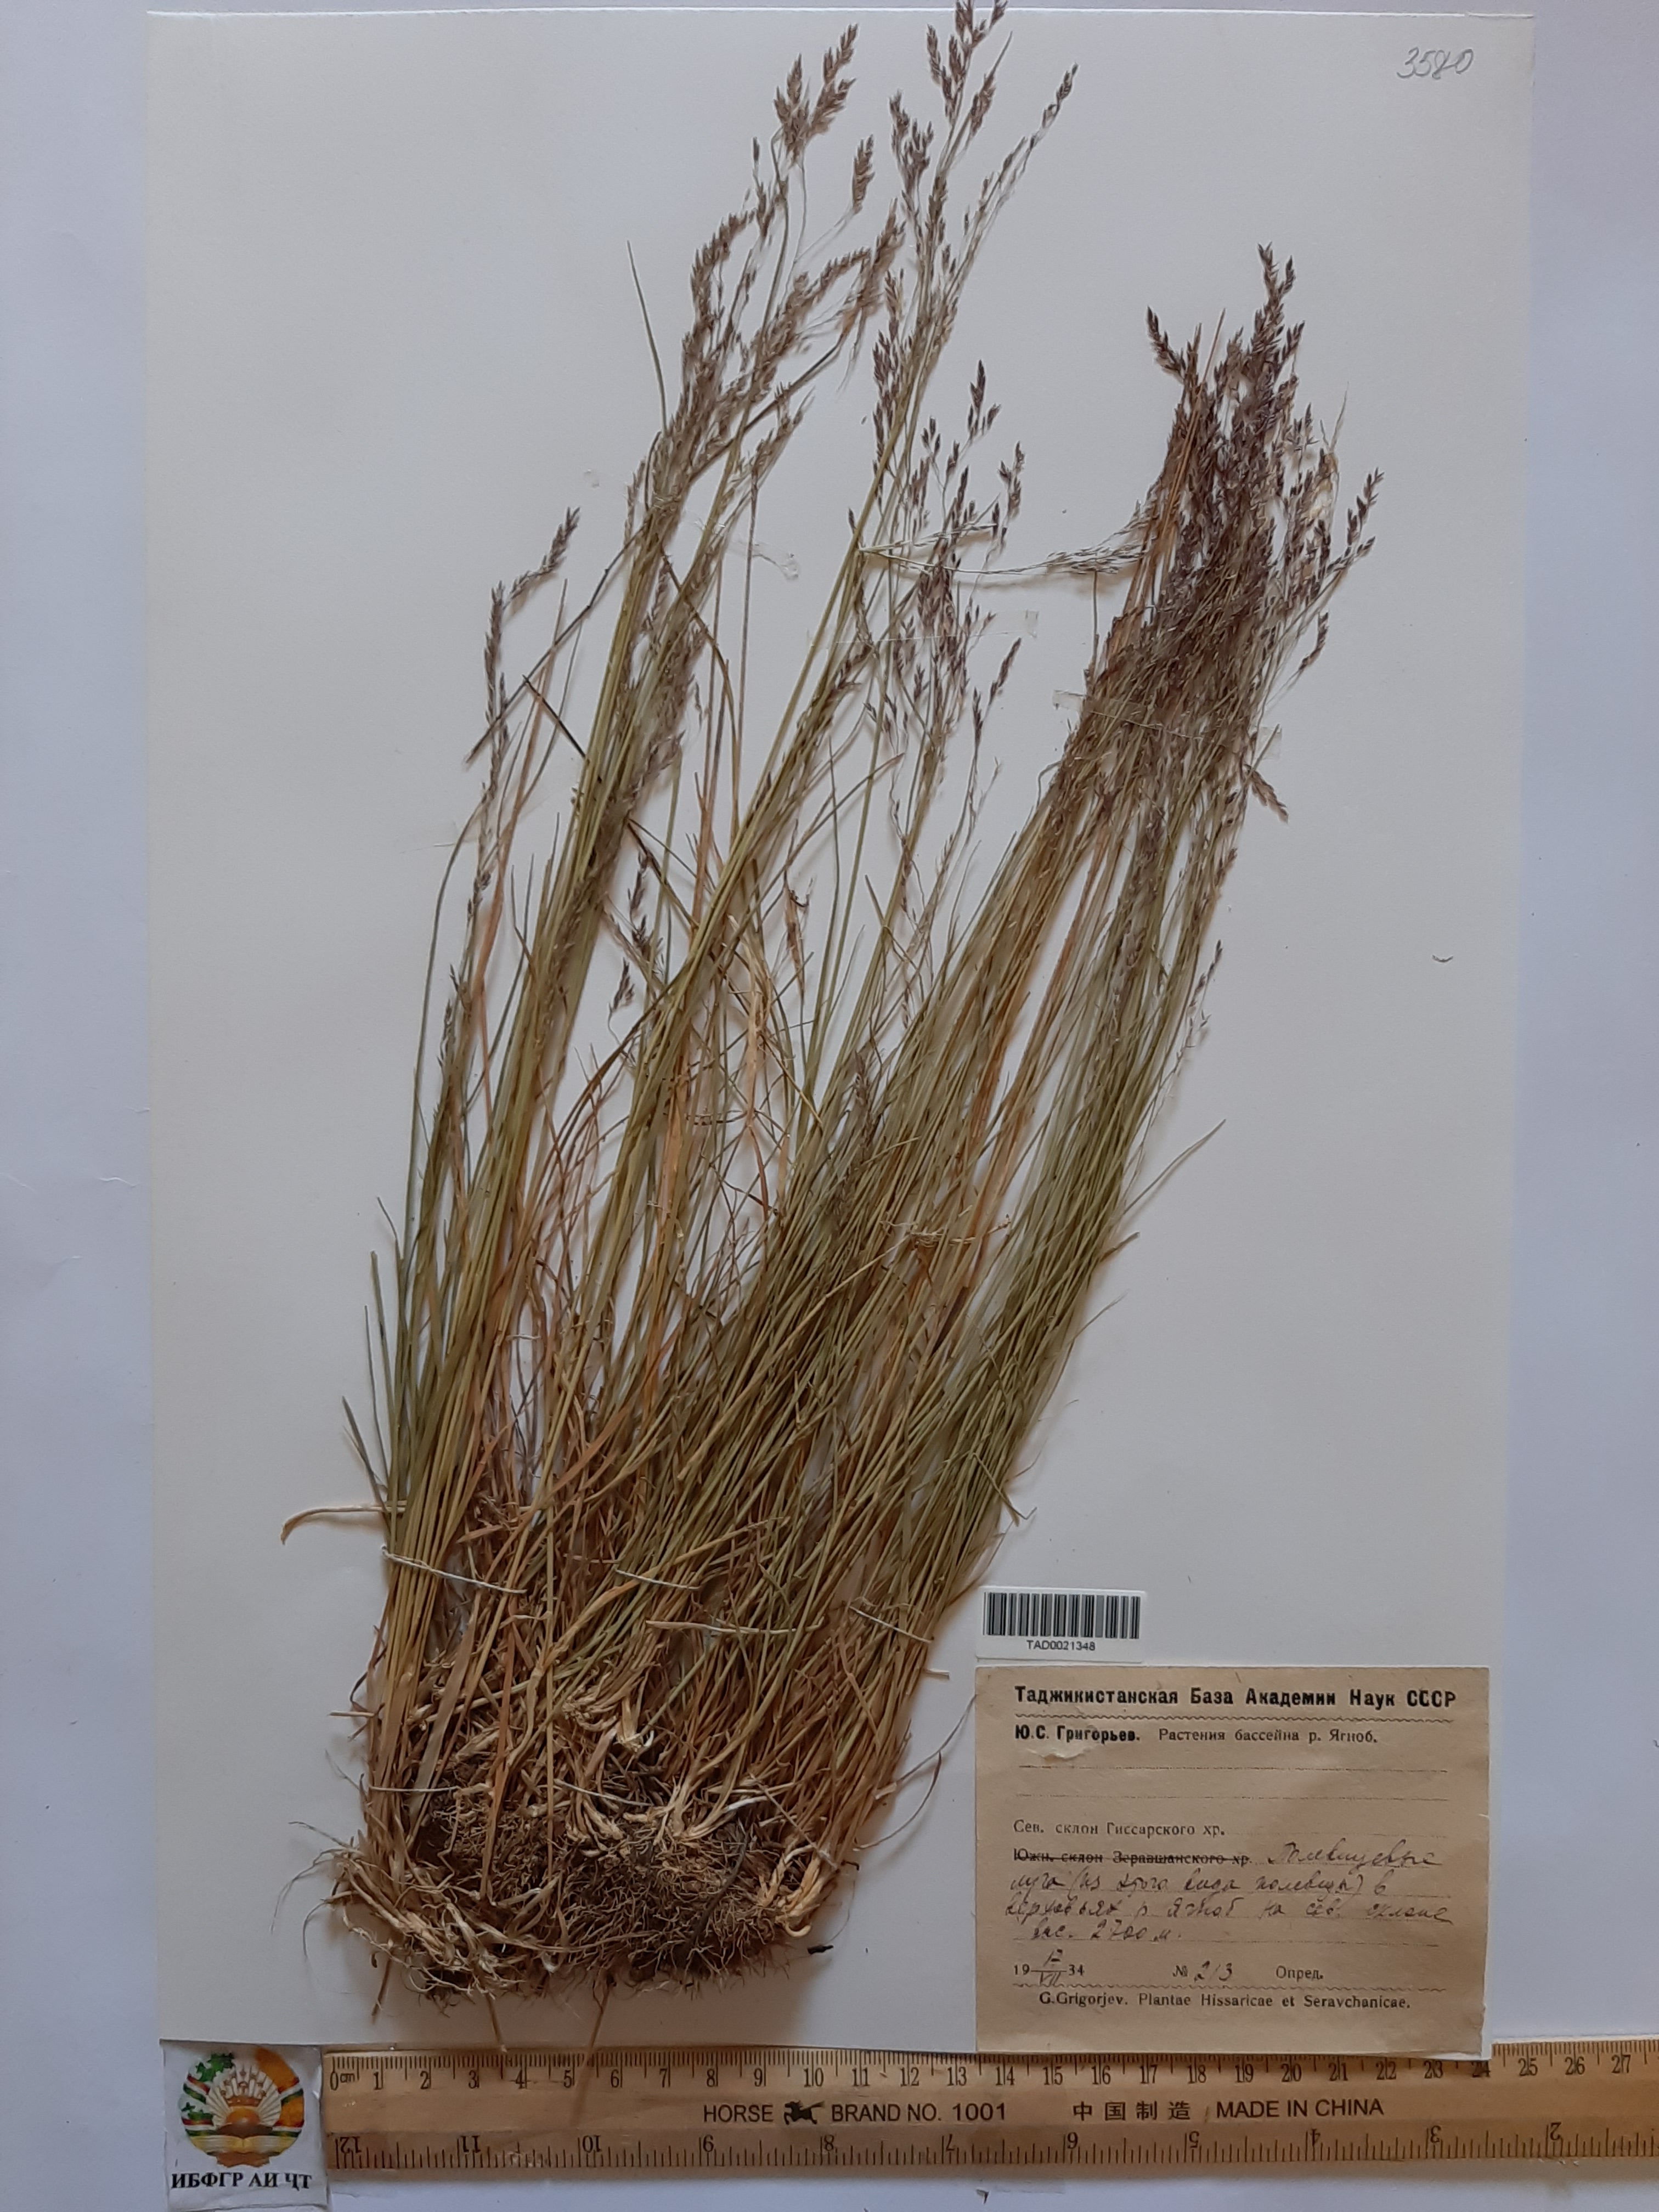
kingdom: Plantae
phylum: Tracheophyta
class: Liliopsida
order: Poales
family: Poaceae
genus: Agrostis
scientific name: Agrostis canina
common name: Velvet bent
